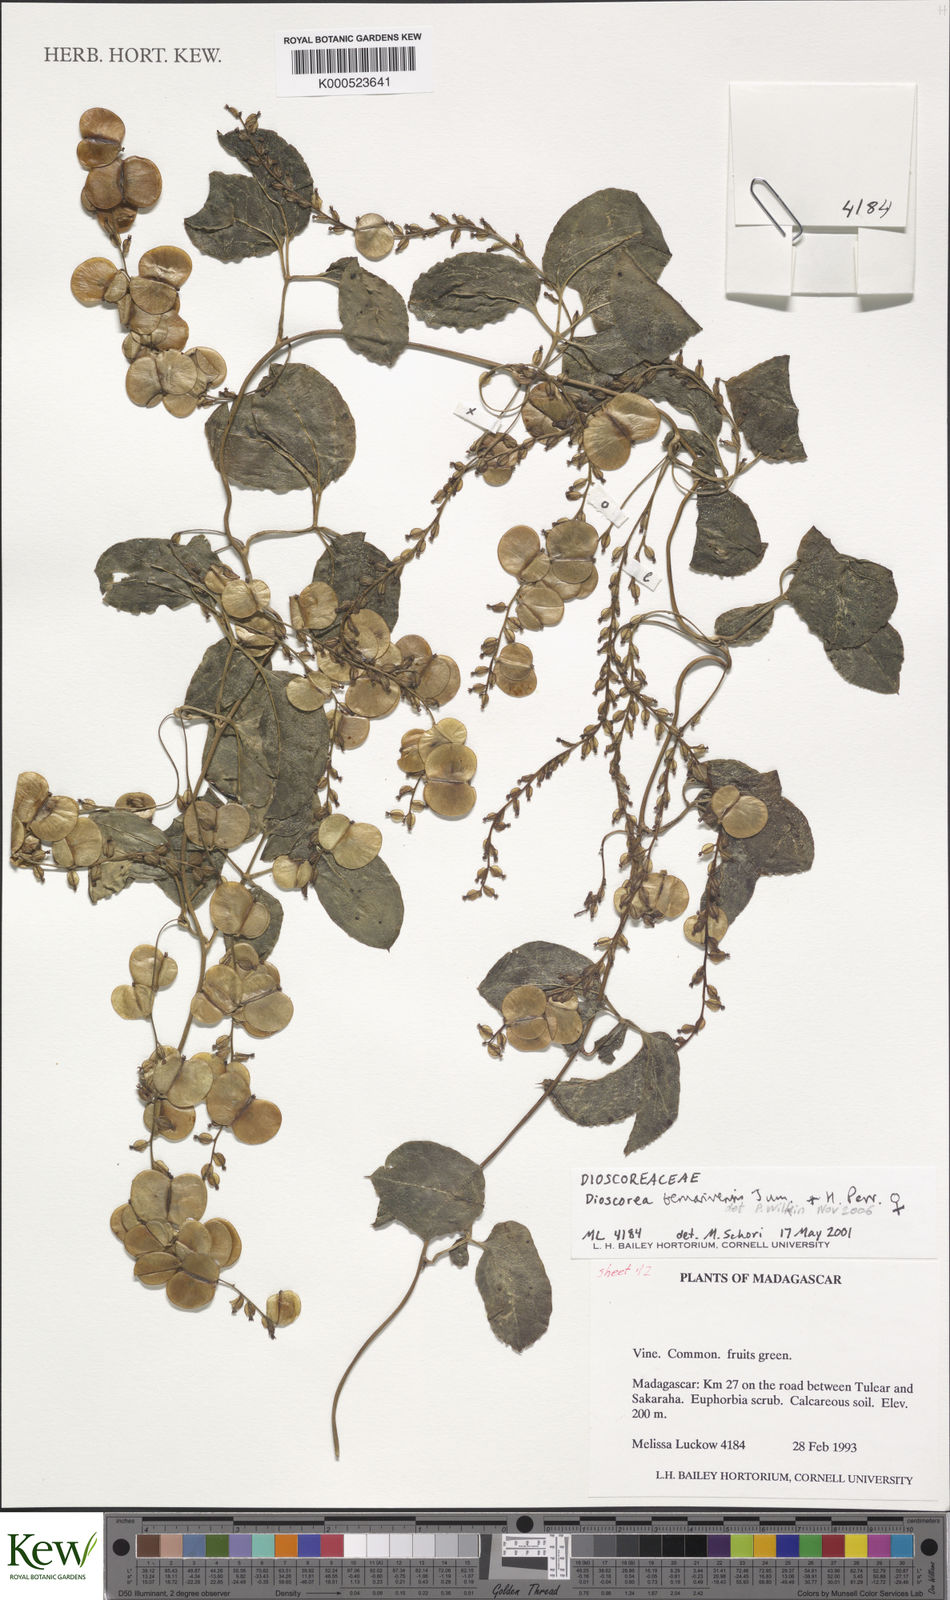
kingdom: Plantae
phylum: Tracheophyta
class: Liliopsida
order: Dioscoreales
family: Dioscoreaceae
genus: Dioscorea
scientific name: Dioscorea bemarivensis
